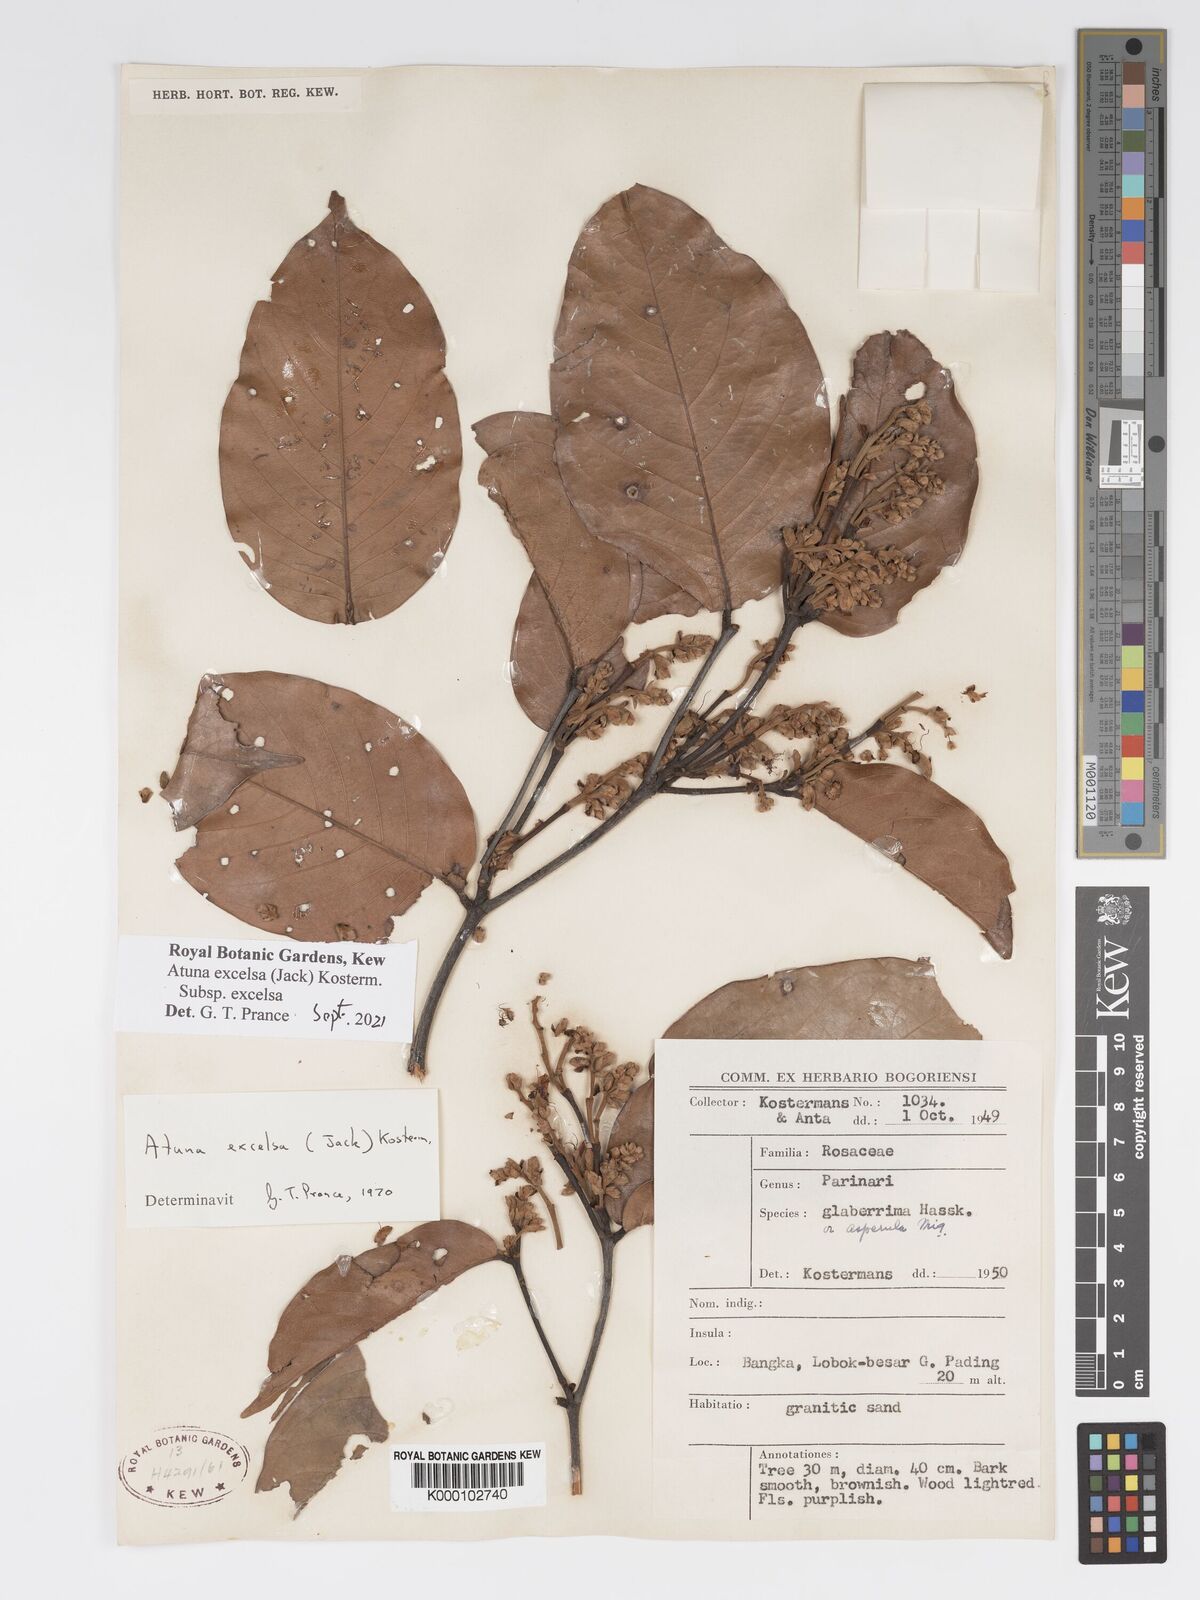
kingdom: Plantae
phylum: Tracheophyta
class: Magnoliopsida
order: Malpighiales
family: Chrysobalanaceae
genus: Atuna
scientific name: Atuna excelsa
